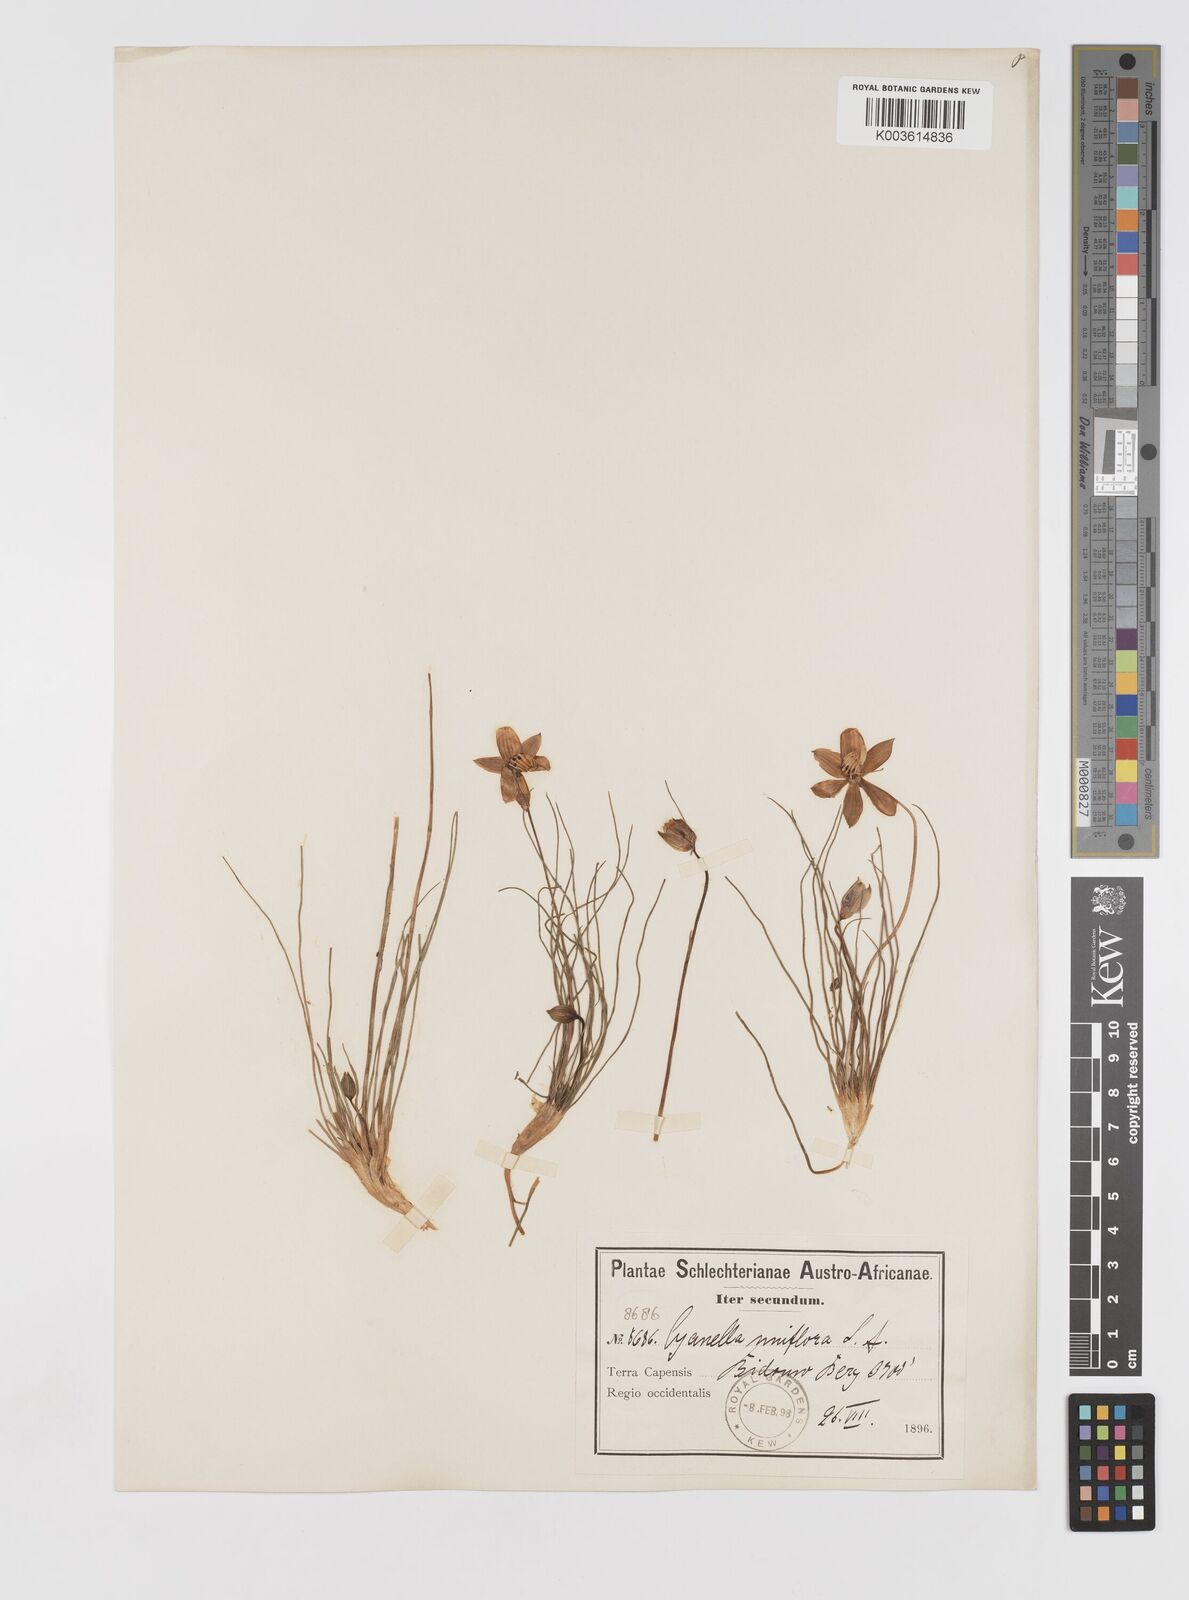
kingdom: Plantae
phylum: Tracheophyta
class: Liliopsida
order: Asparagales
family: Tecophilaeaceae
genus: Cyanella
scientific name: Cyanella
